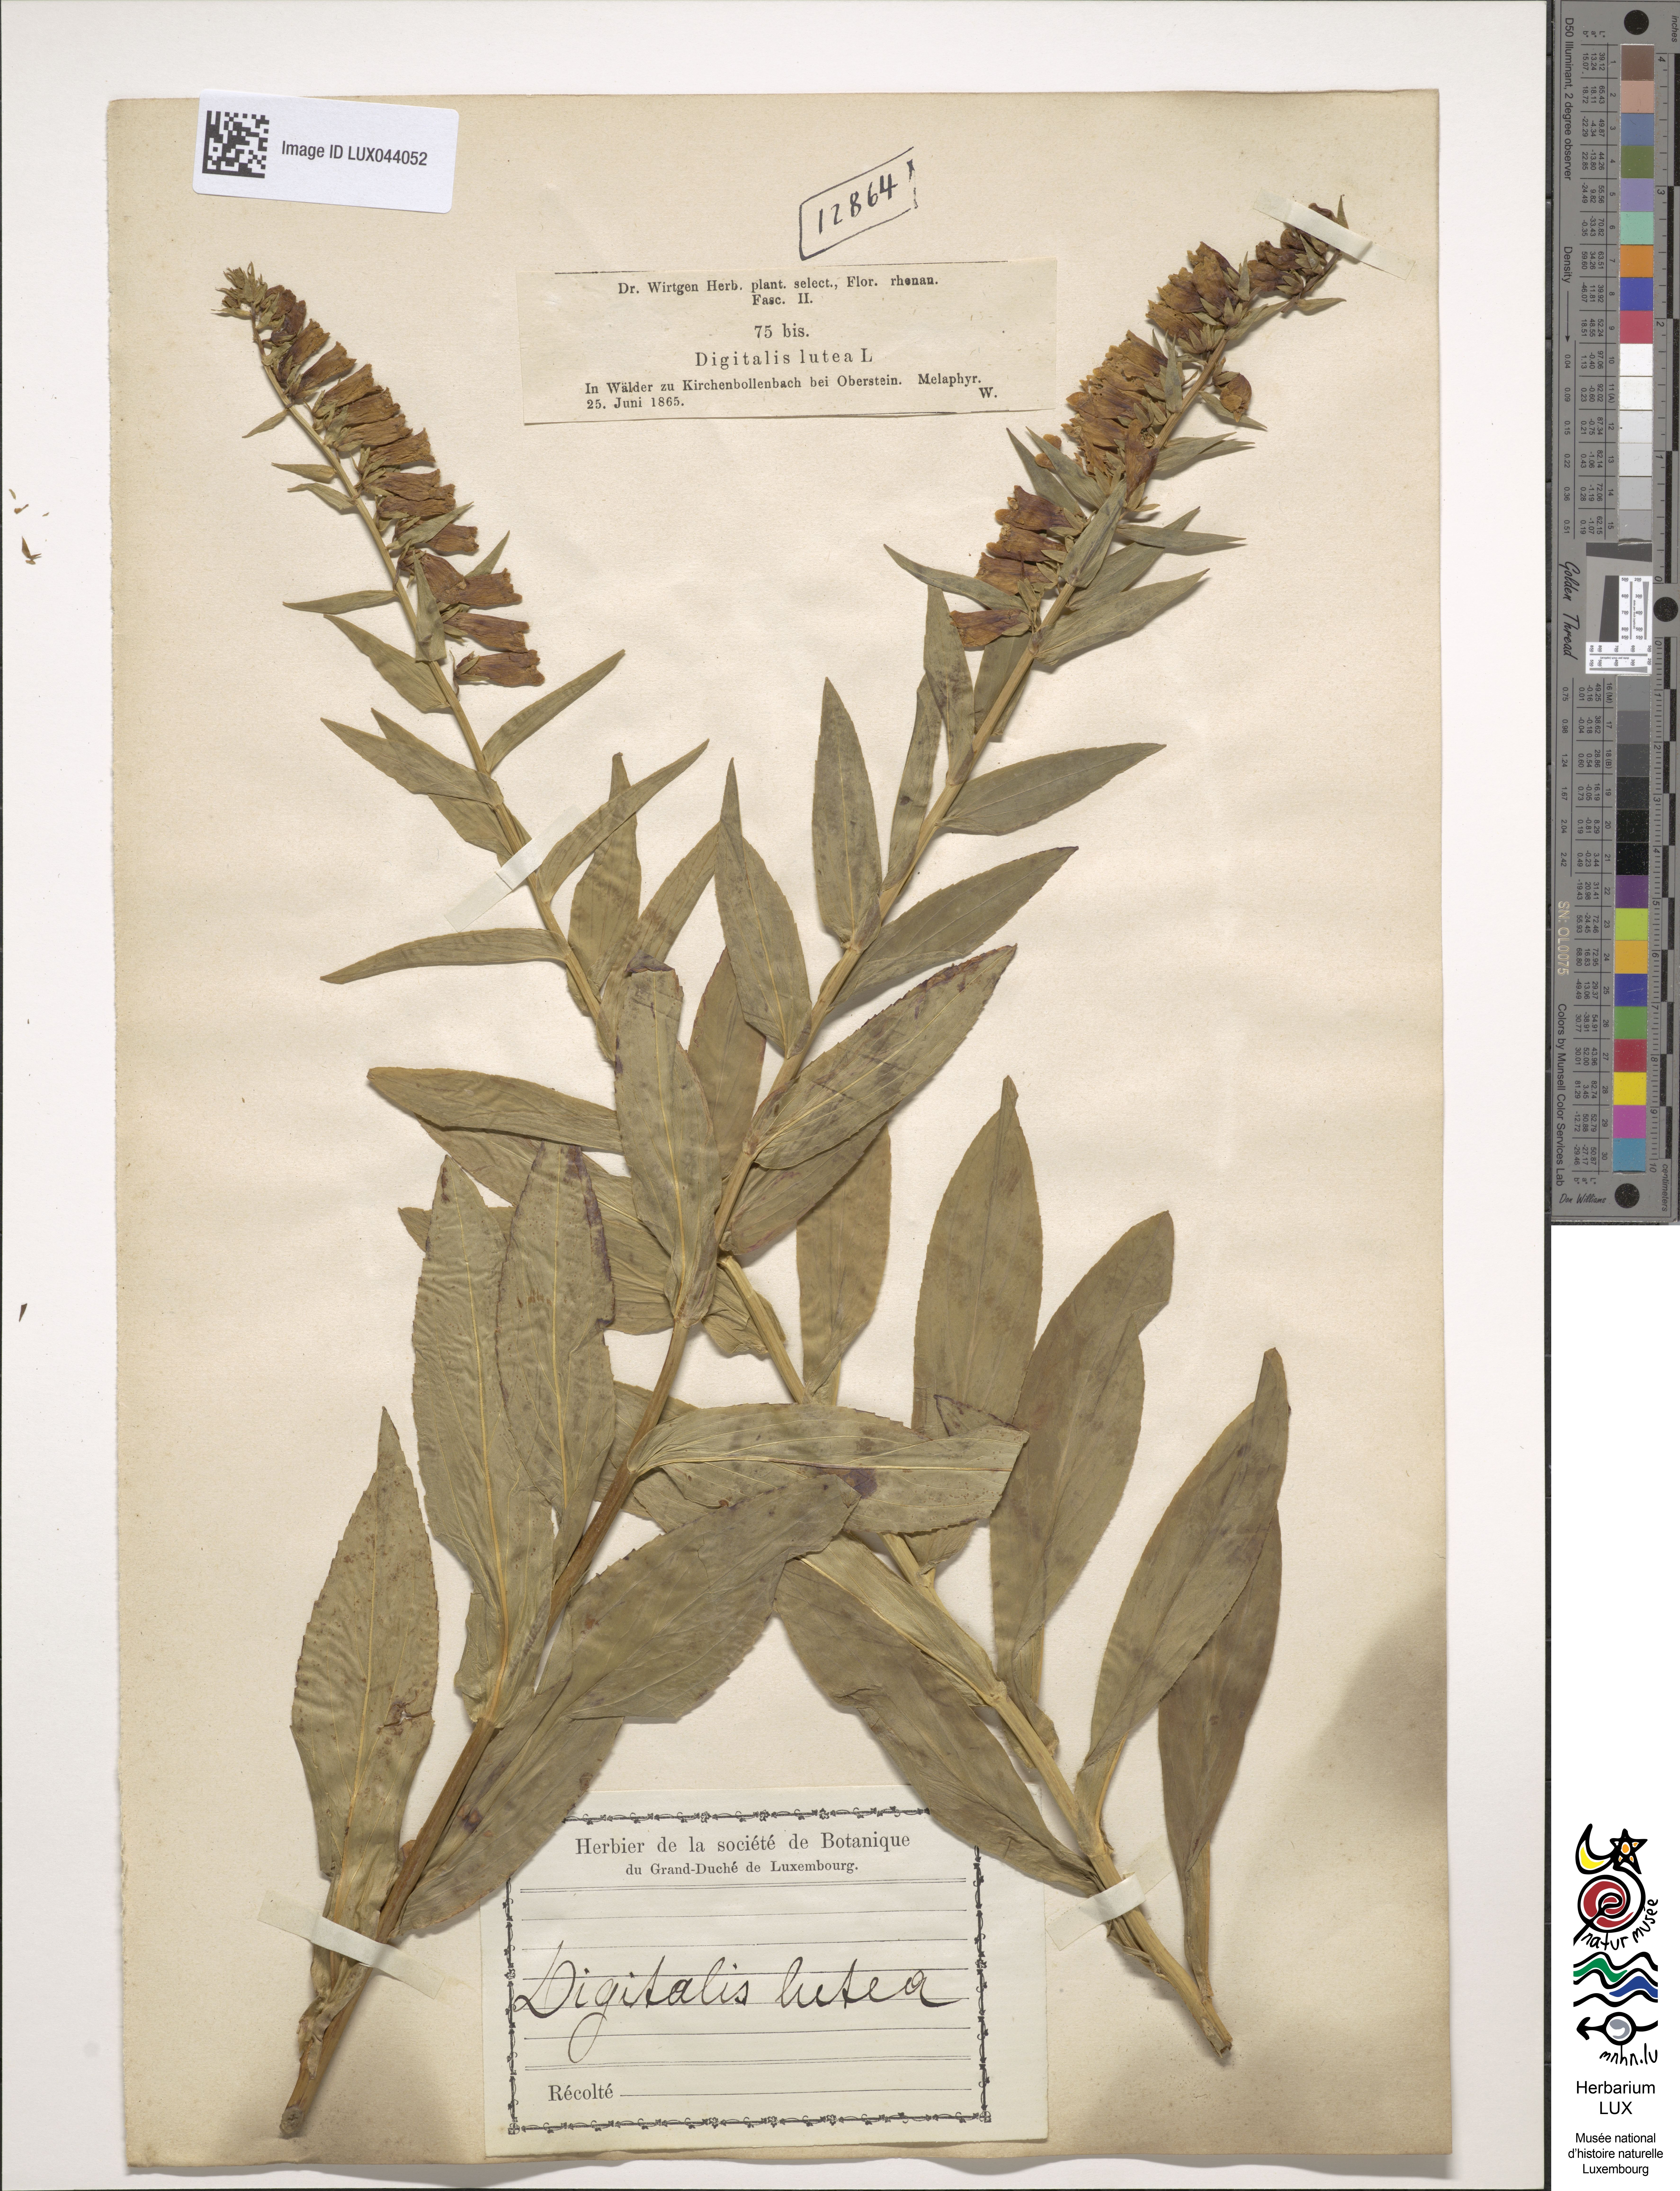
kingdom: Plantae
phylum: Tracheophyta
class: Magnoliopsida
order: Lamiales
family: Plantaginaceae
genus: Digitalis
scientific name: Digitalis lutea
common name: Straw foxglove
